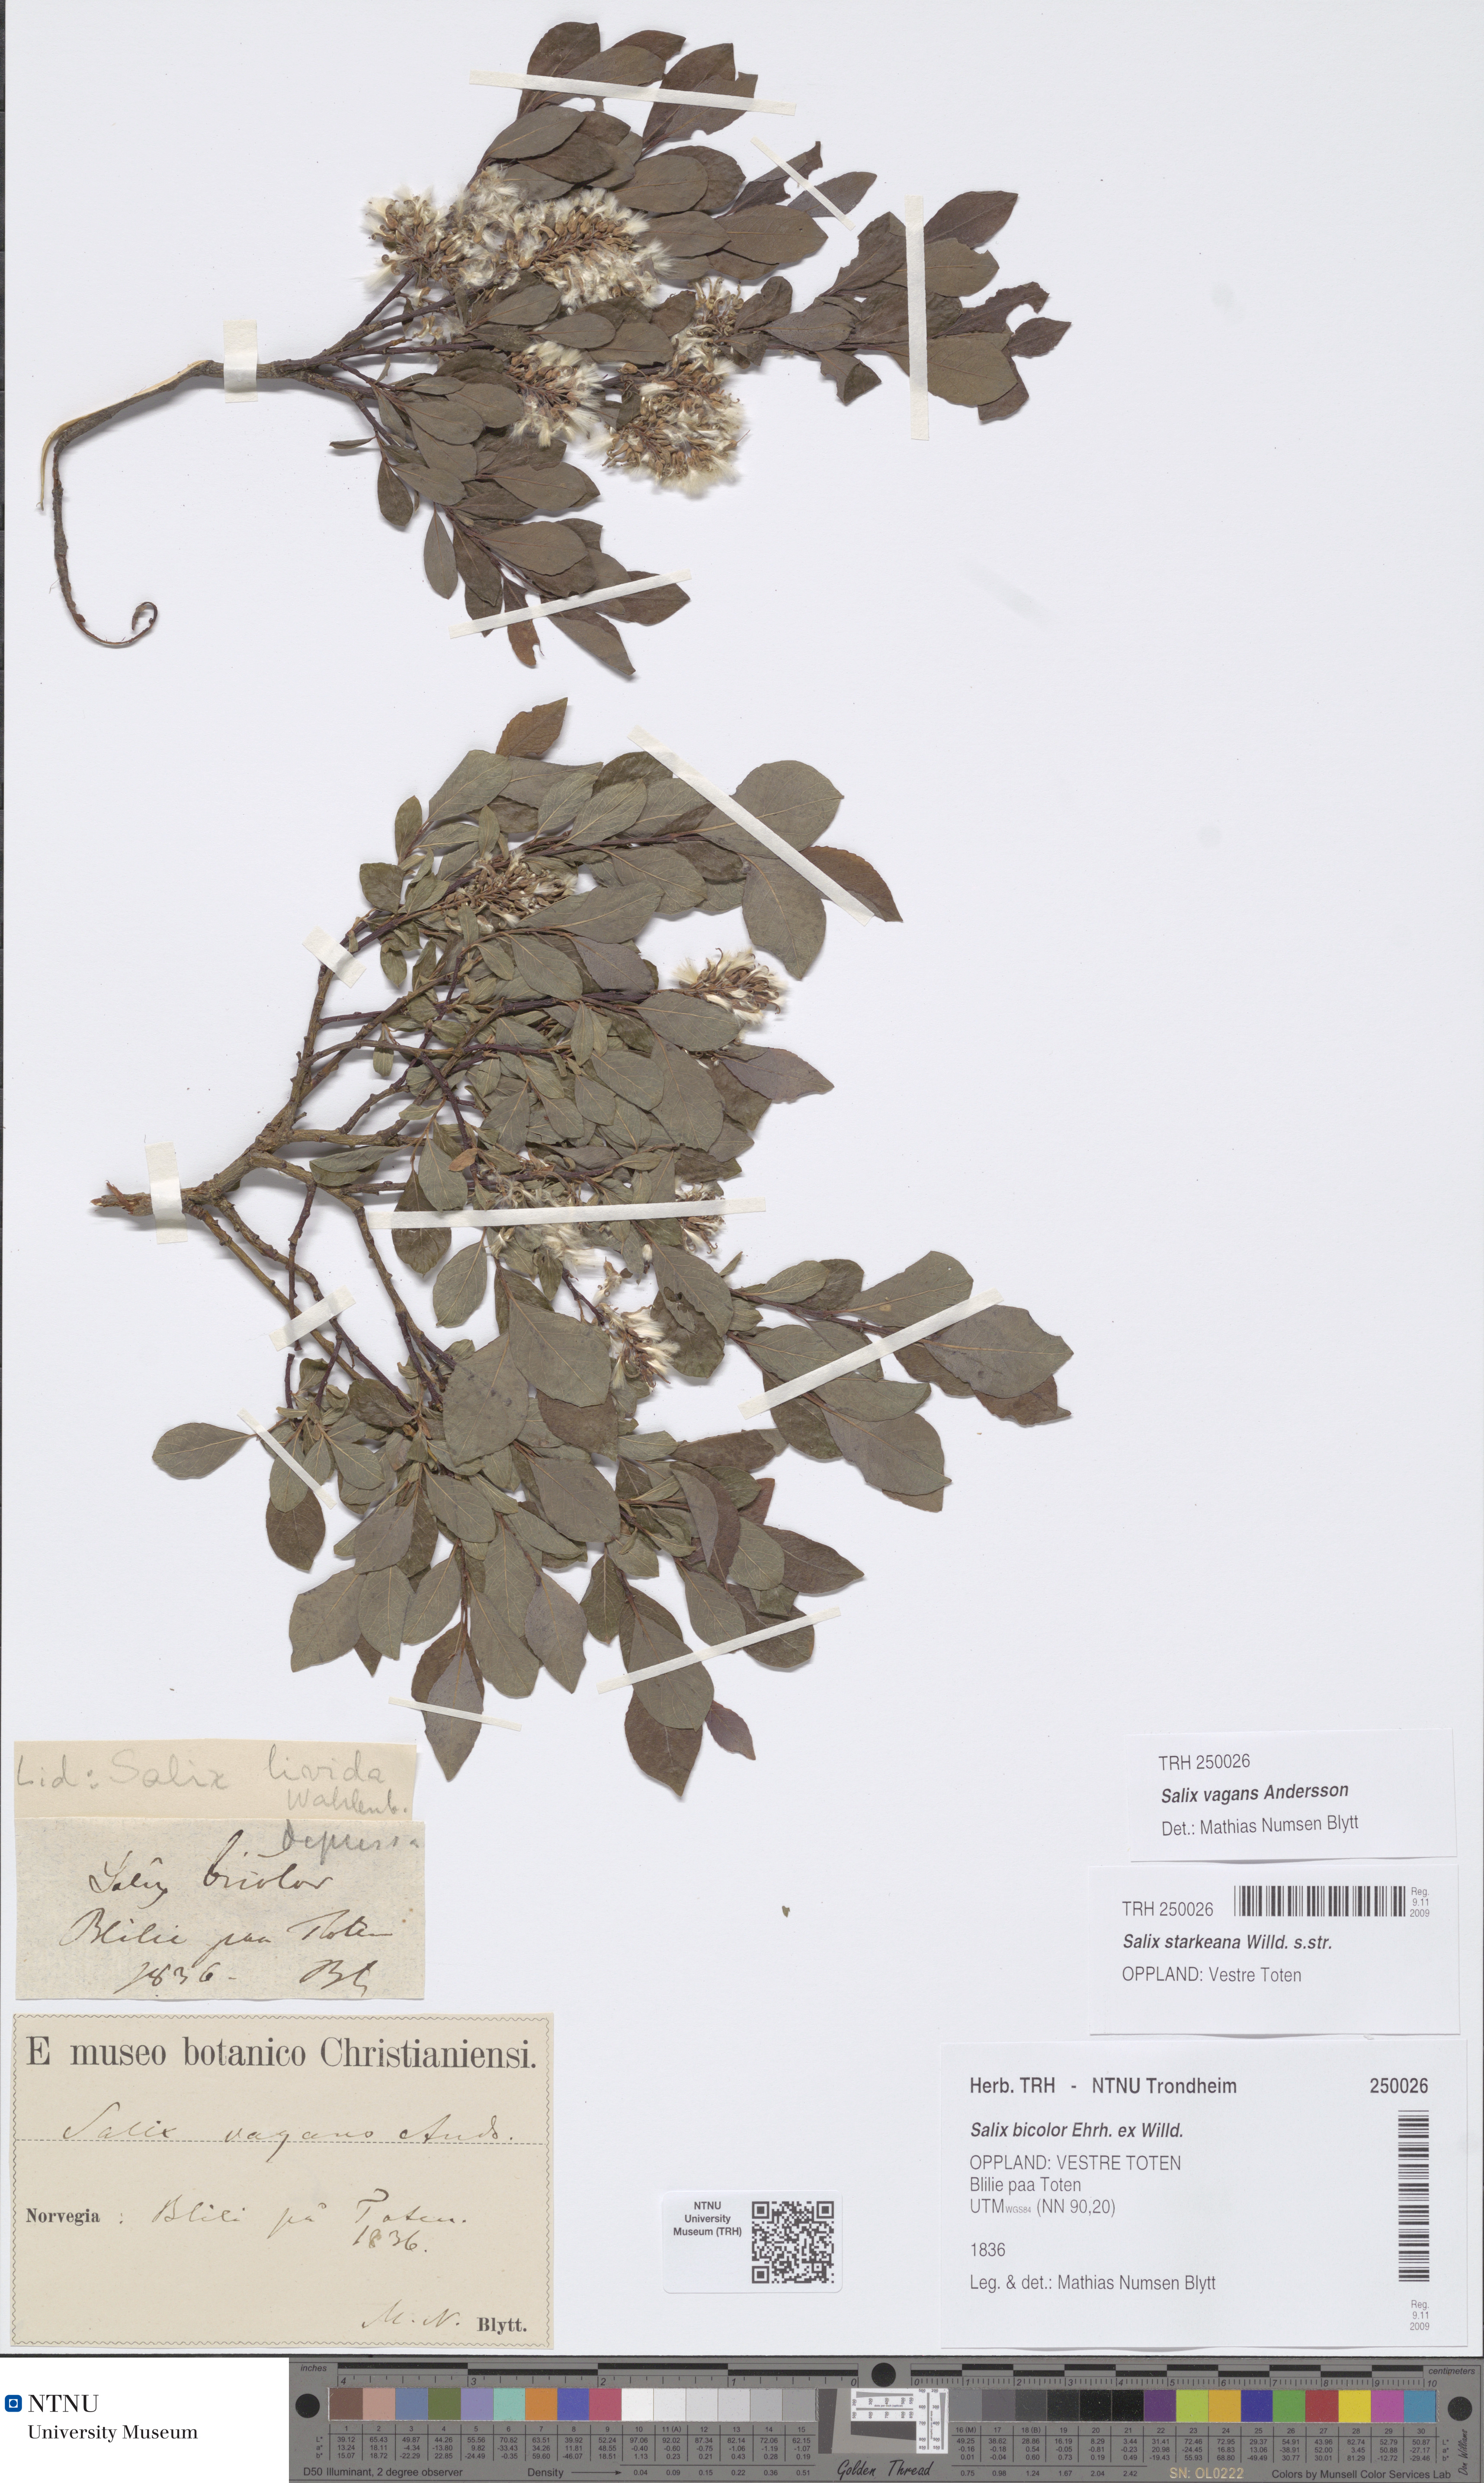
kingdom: Plantae
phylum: Tracheophyta
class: Magnoliopsida
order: Malpighiales
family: Salicaceae
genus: Salix
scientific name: Salix starkeana
